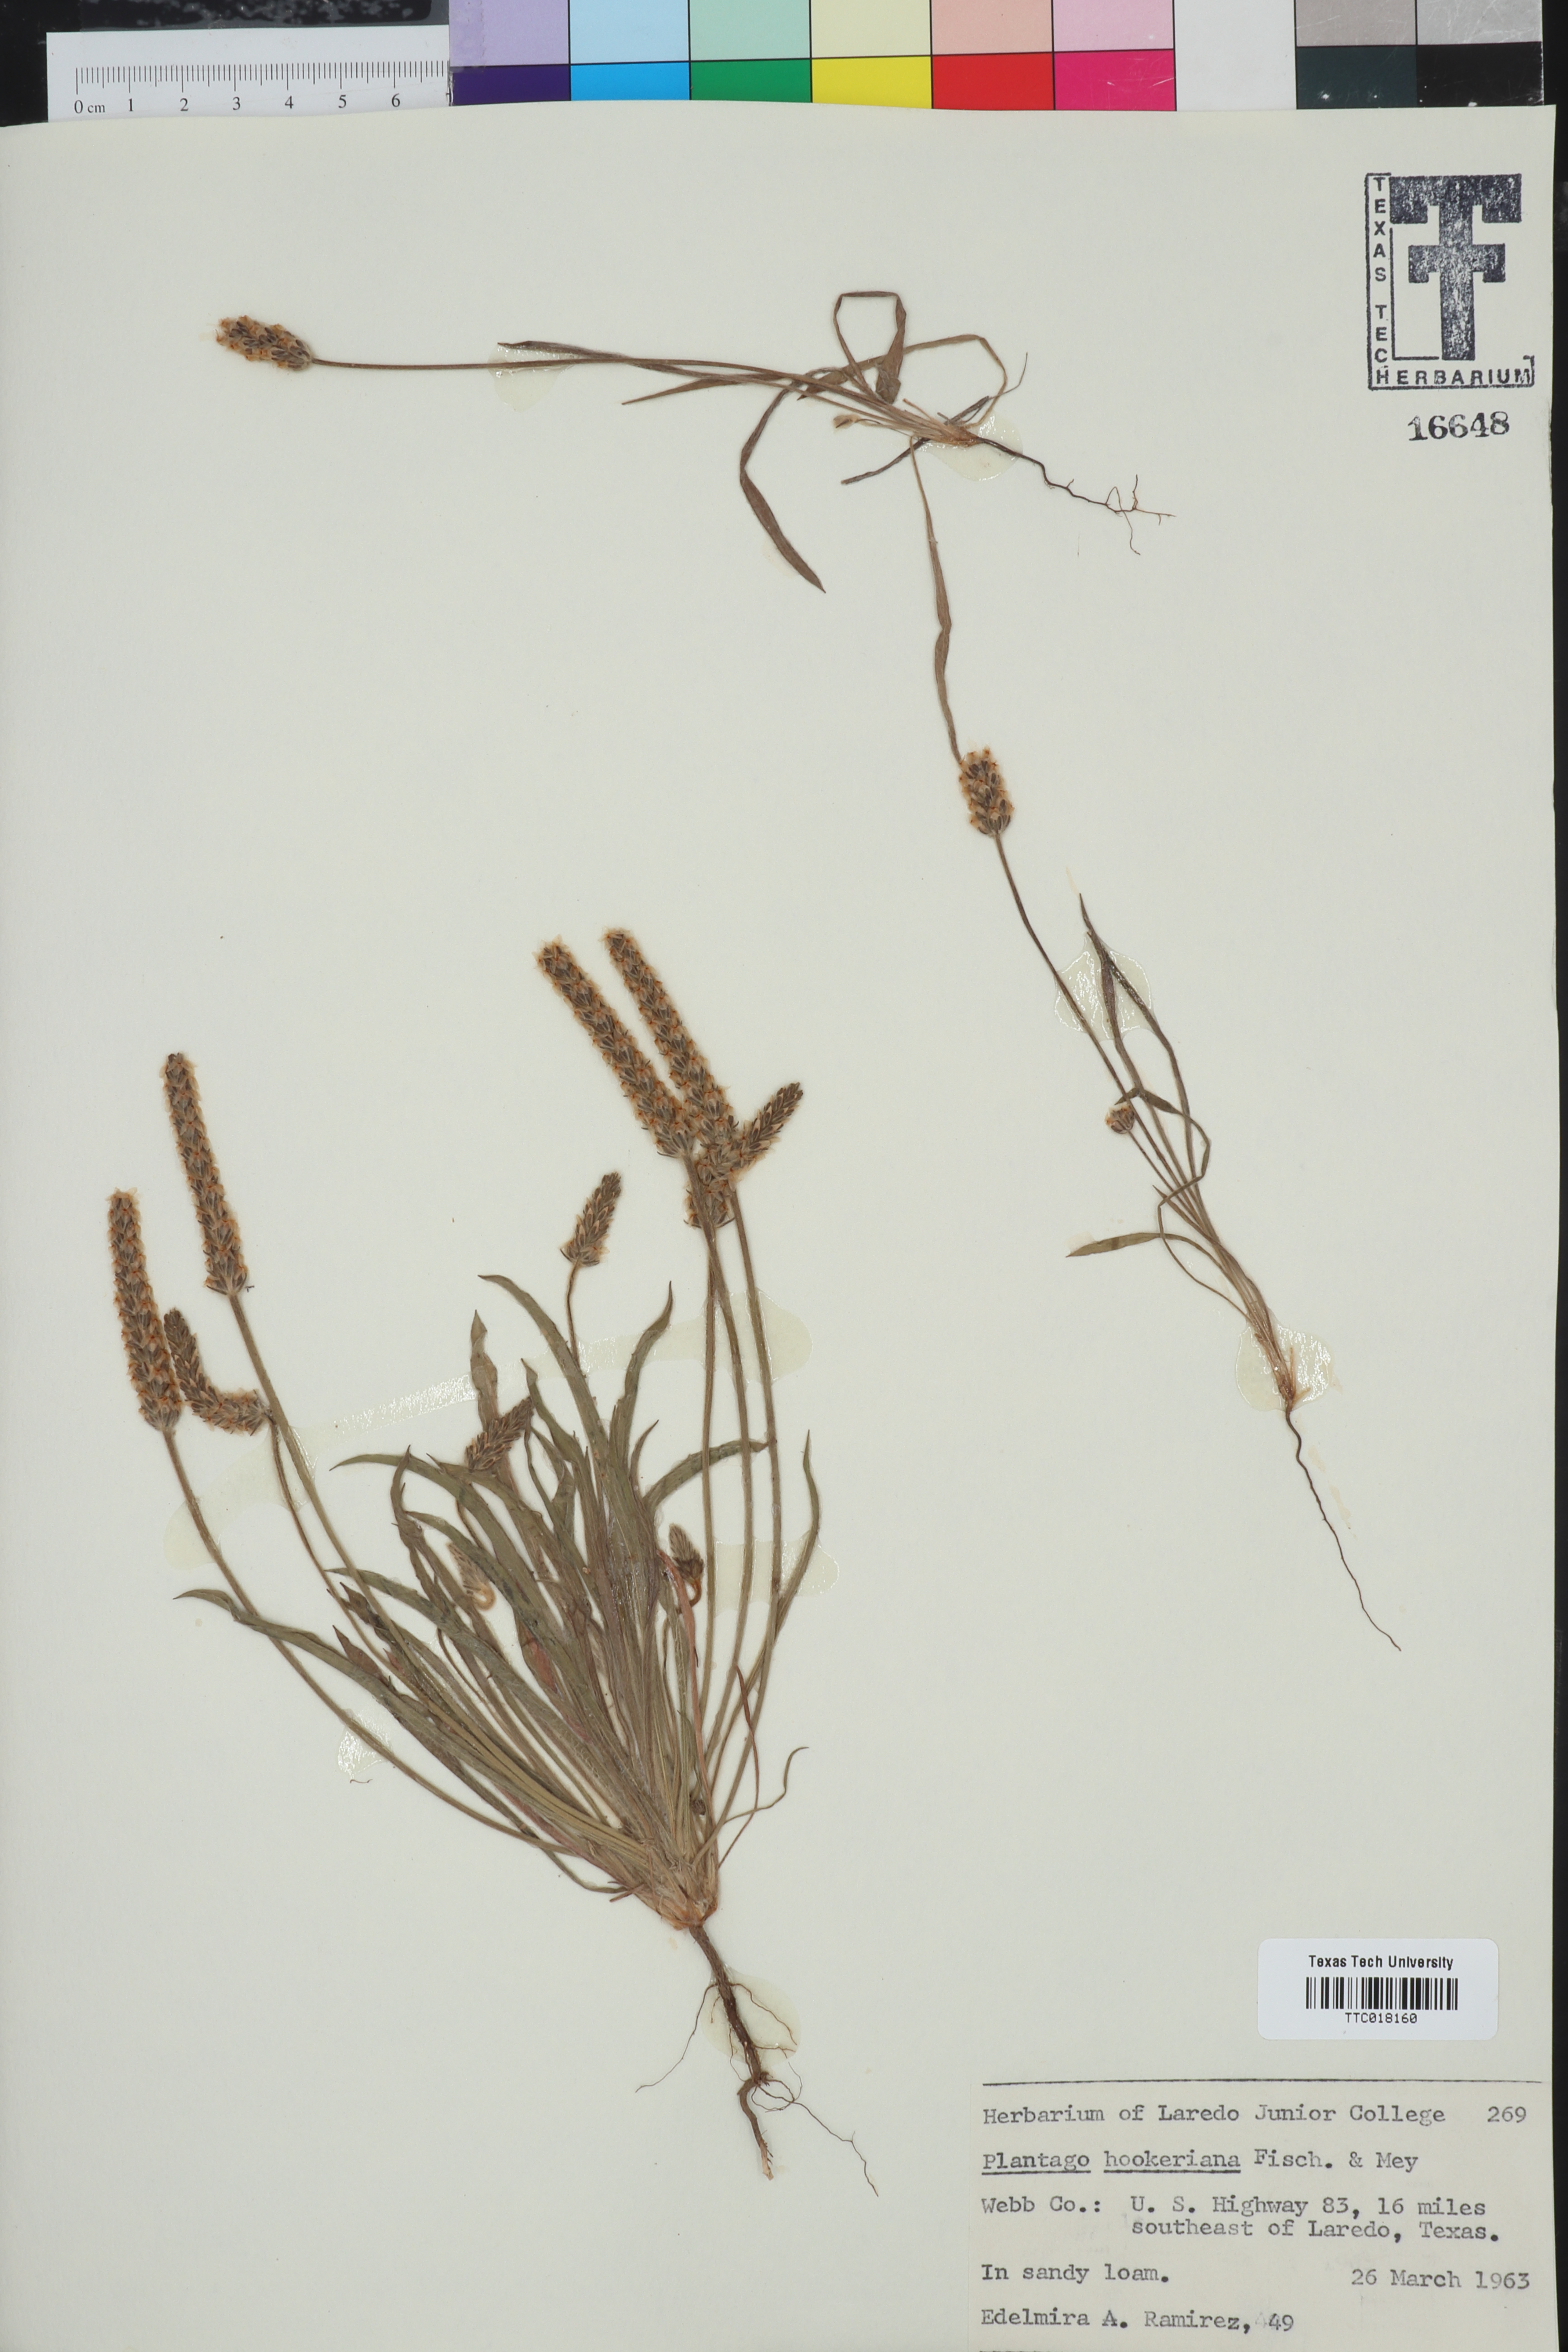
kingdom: Plantae
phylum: Tracheophyta
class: Magnoliopsida
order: Lamiales
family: Plantaginaceae
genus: Plantago
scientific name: Plantago hookeriana
